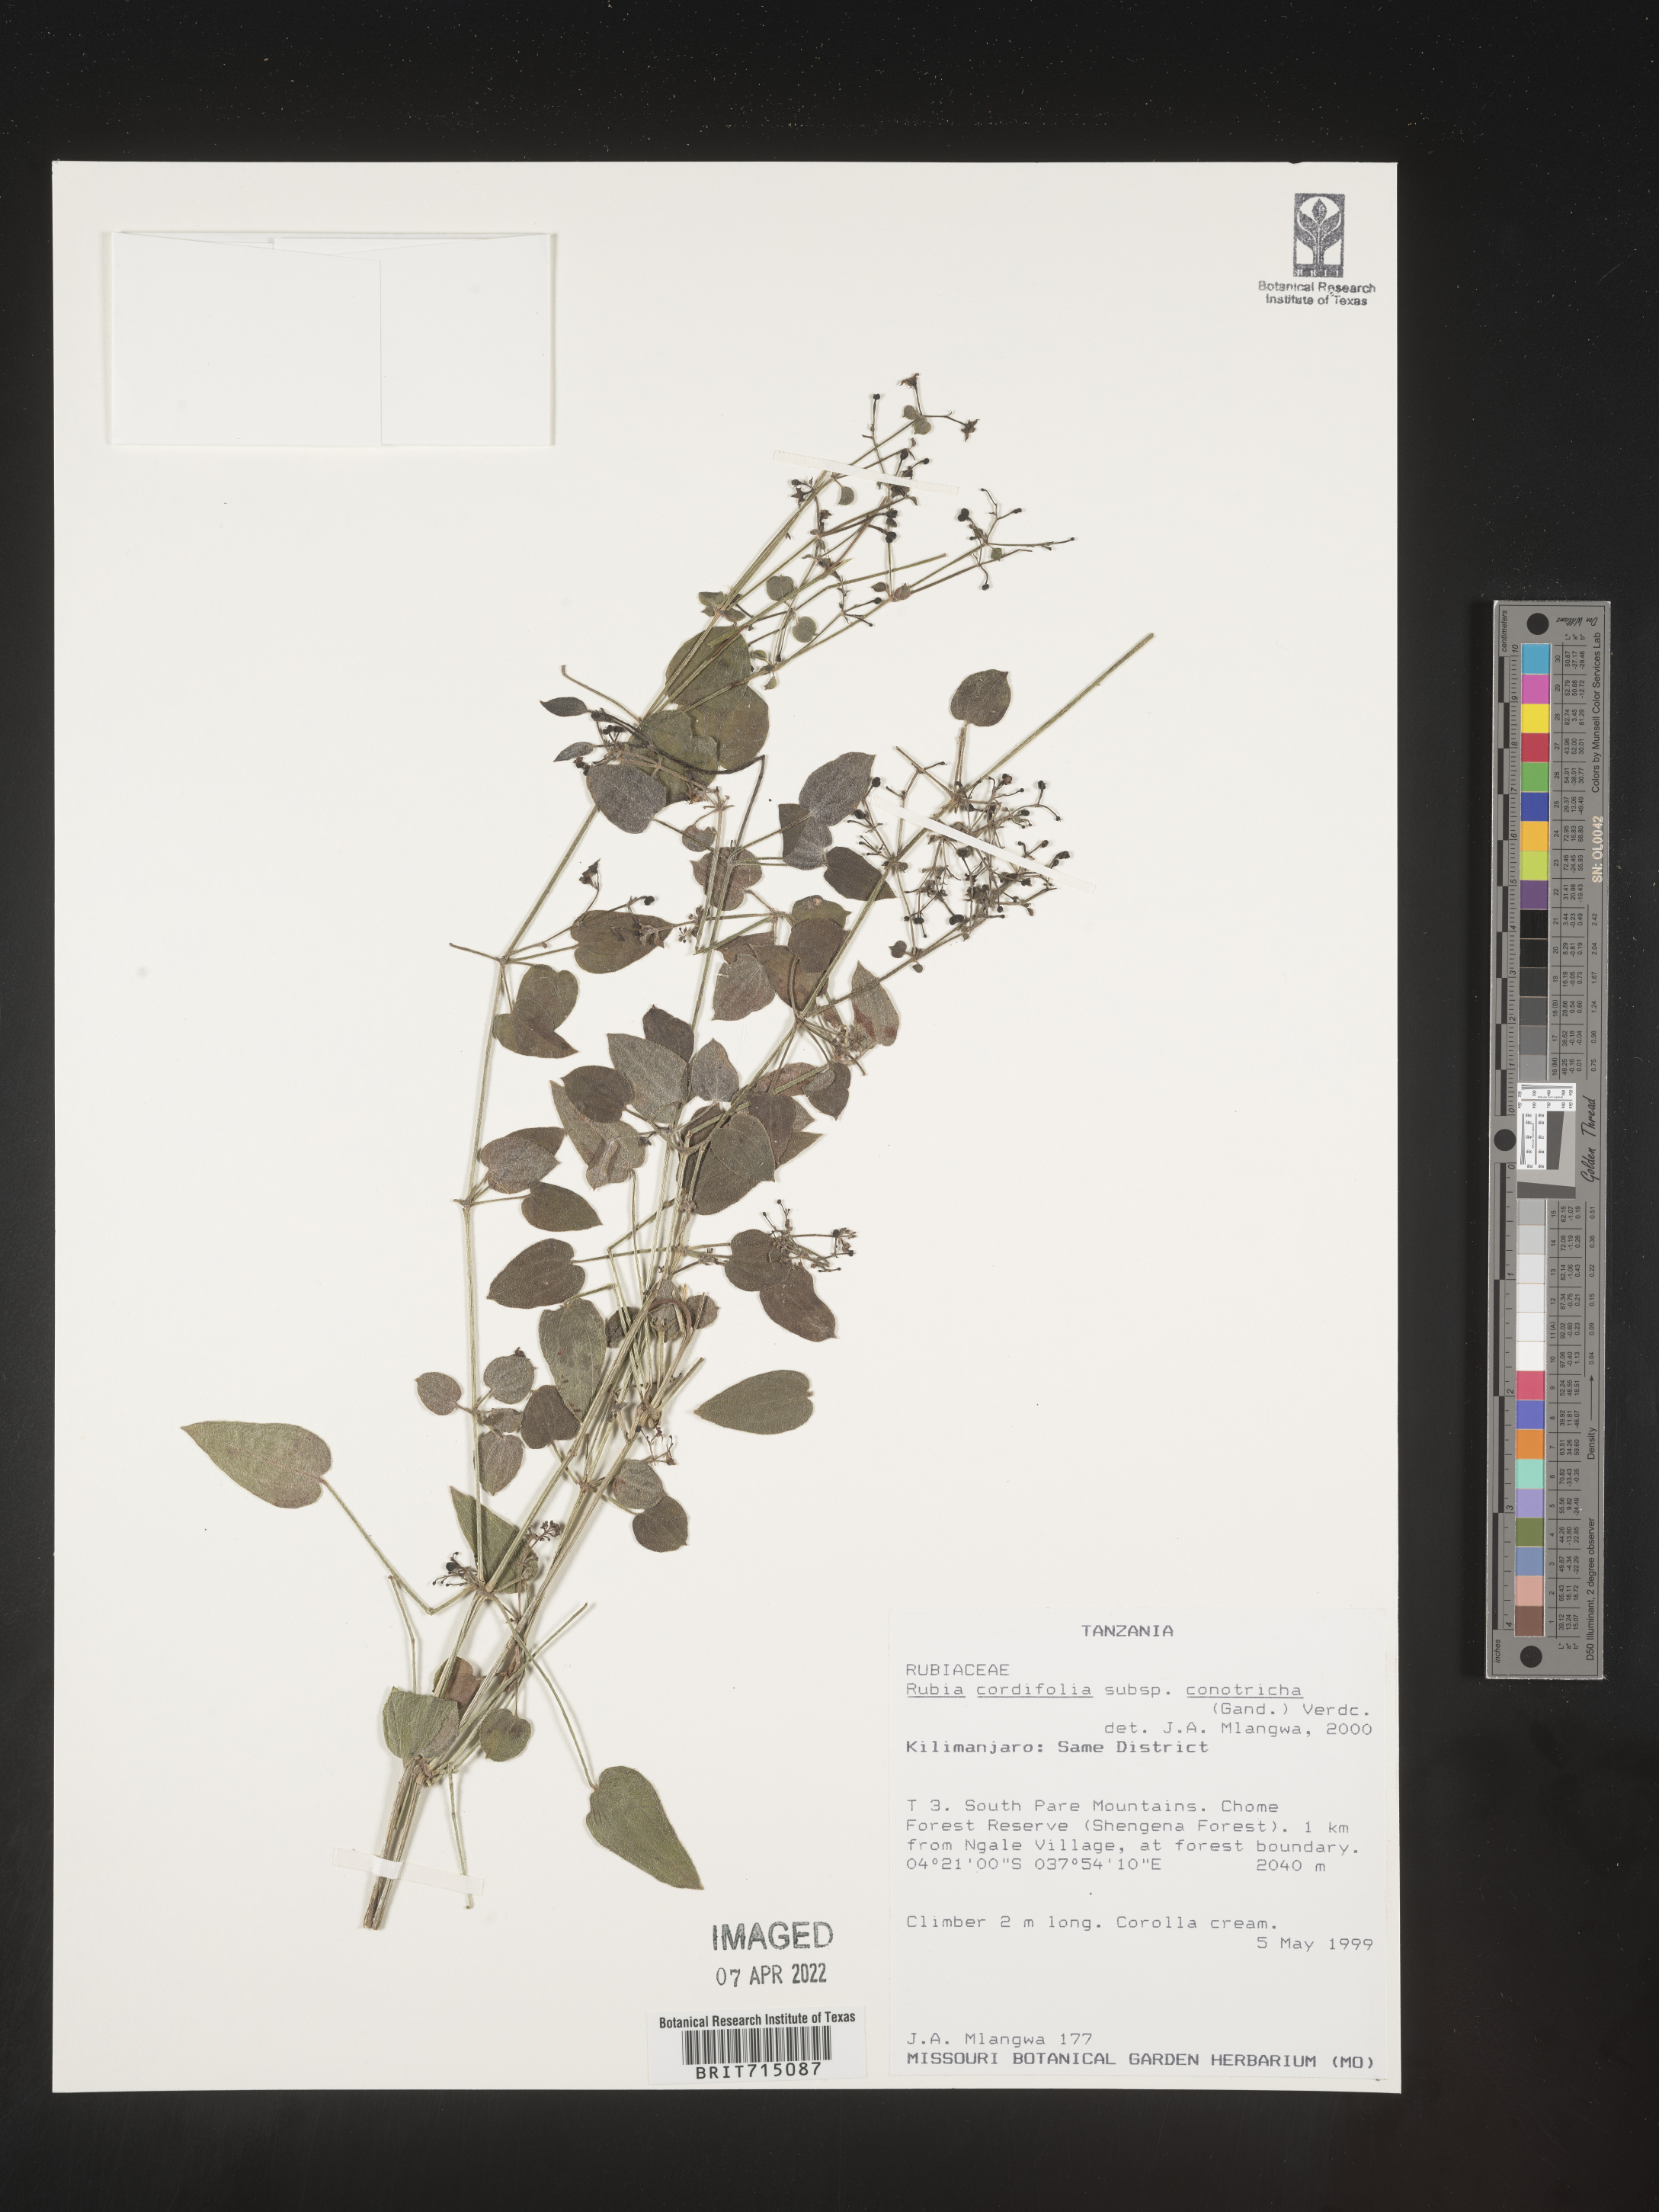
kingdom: Plantae
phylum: Tracheophyta
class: Magnoliopsida
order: Gentianales
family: Rubiaceae
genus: Rubia
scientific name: Rubia
